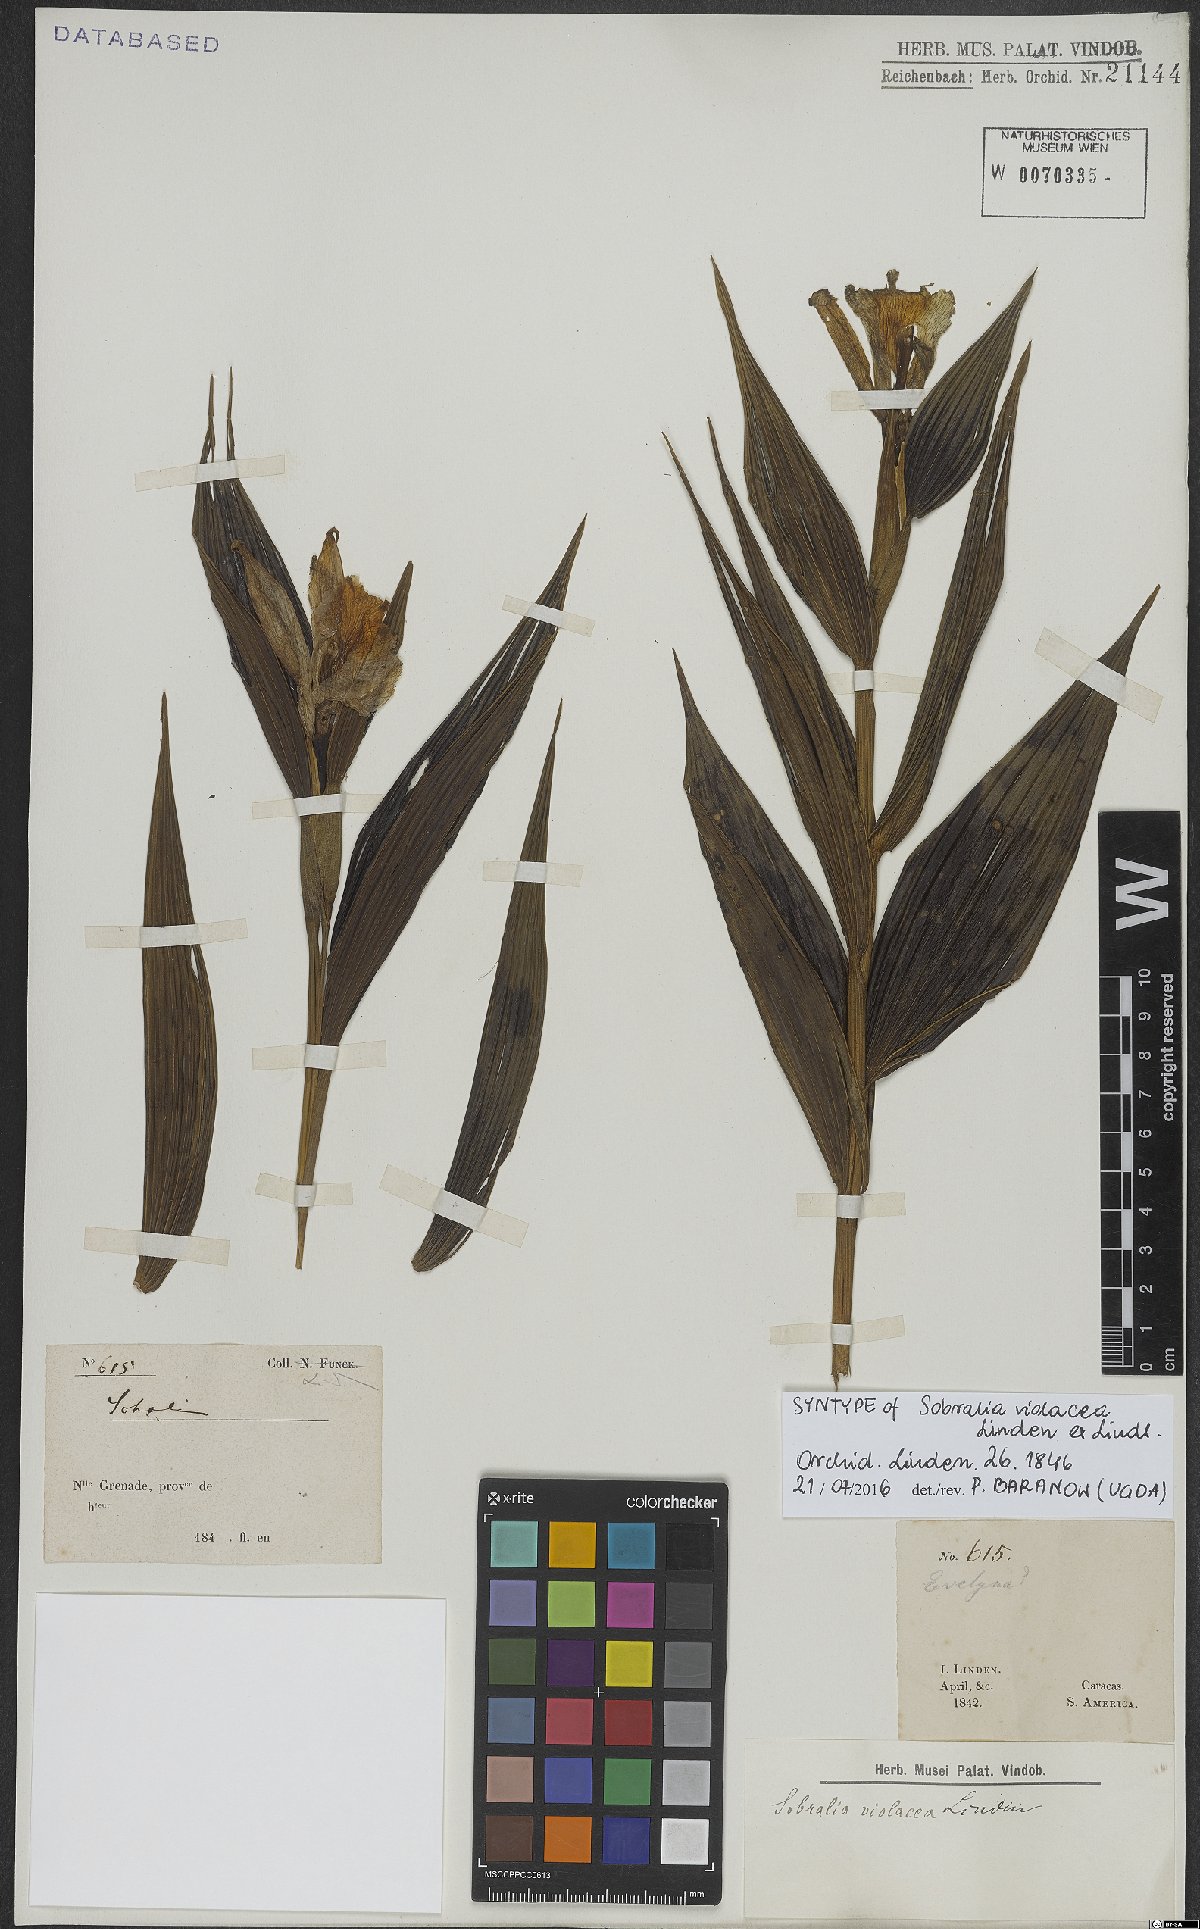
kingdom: Plantae
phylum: Tracheophyta
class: Liliopsida
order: Asparagales
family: Orchidaceae
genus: Sobralia
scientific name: Sobralia violacea
